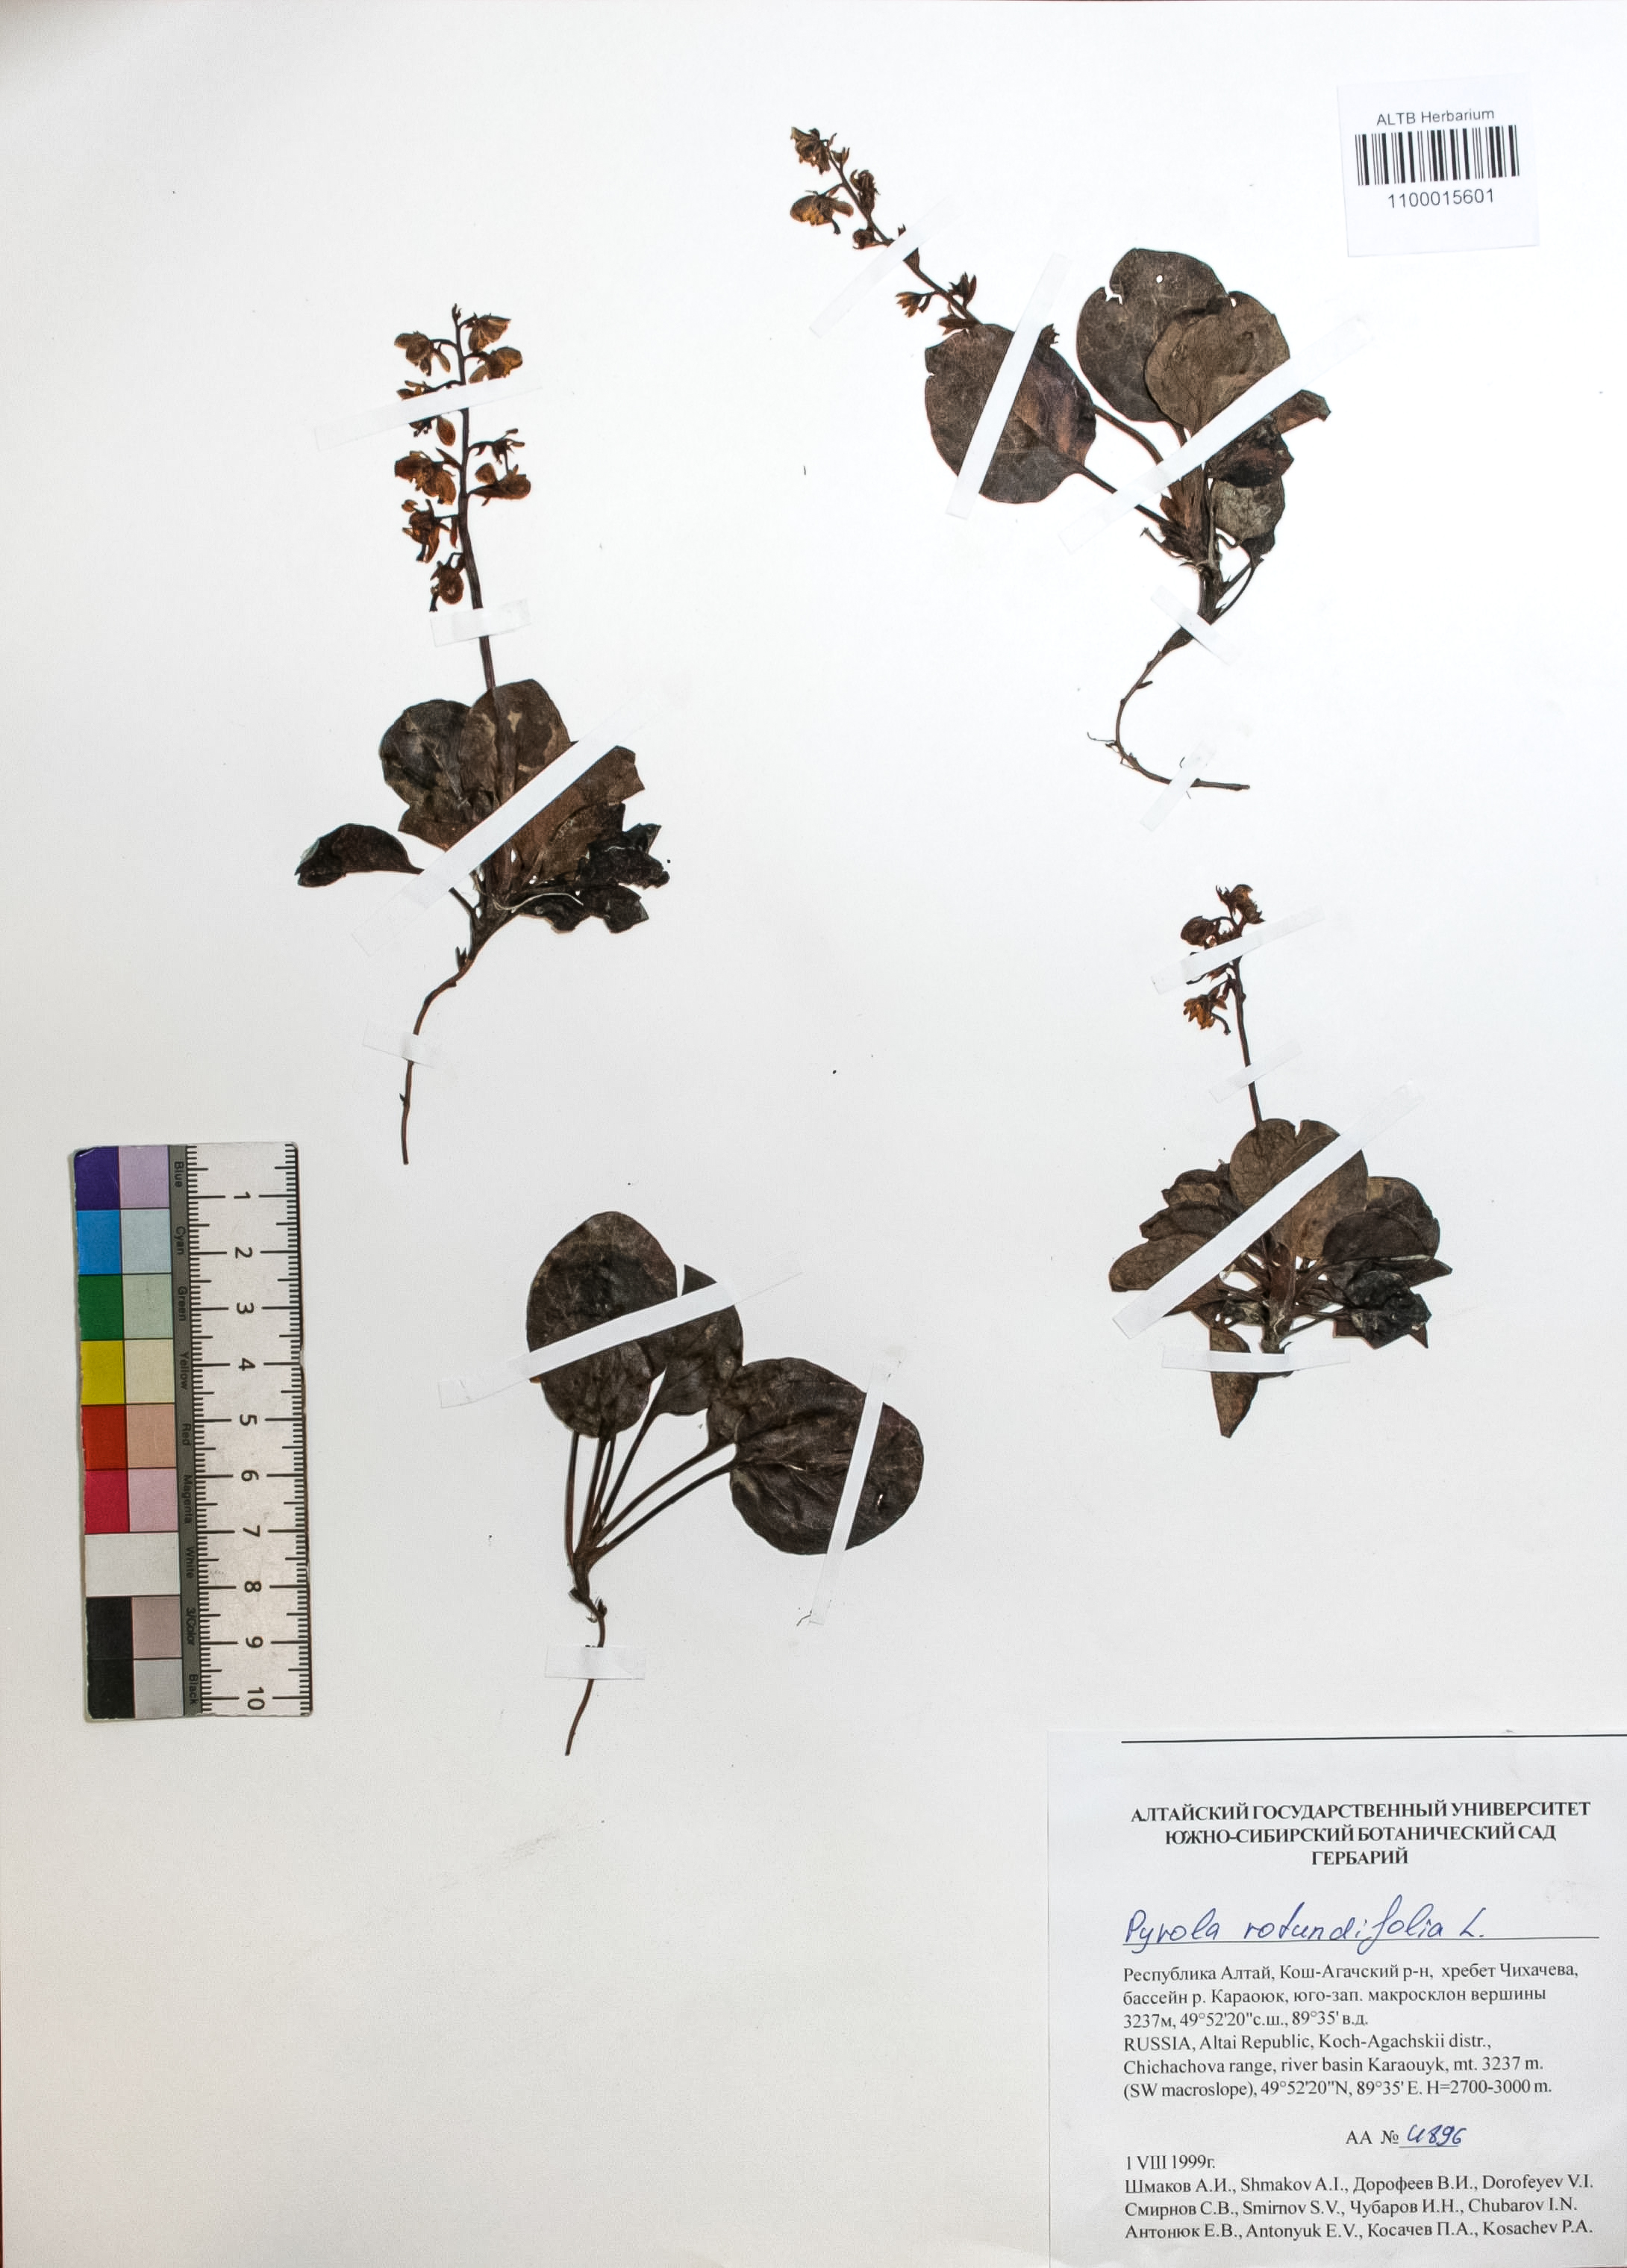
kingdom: Plantae
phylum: Tracheophyta
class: Magnoliopsida
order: Ericales
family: Ericaceae
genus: Pyrola
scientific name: Pyrola rotundifolia
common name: Round-leaved wintergreen
